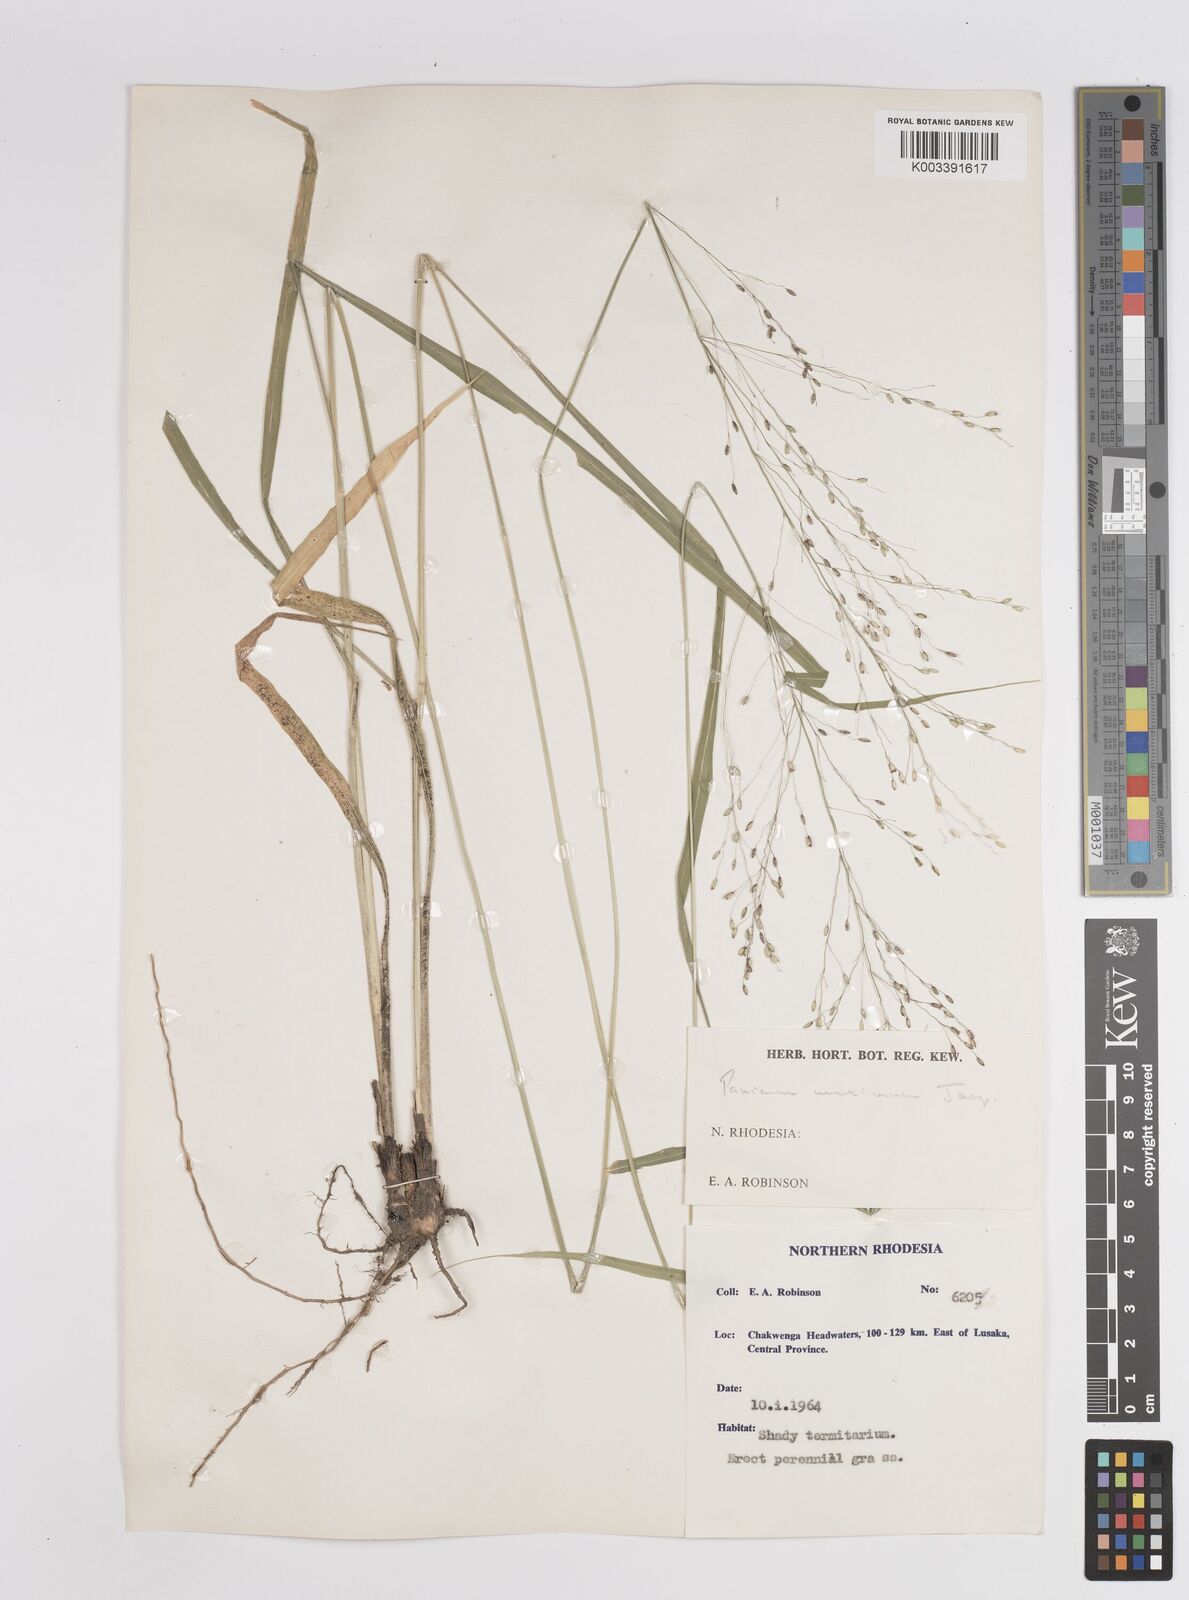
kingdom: Plantae
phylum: Tracheophyta
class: Liliopsida
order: Poales
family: Poaceae
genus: Megathyrsus
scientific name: Megathyrsus maximus
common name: Guineagrass
